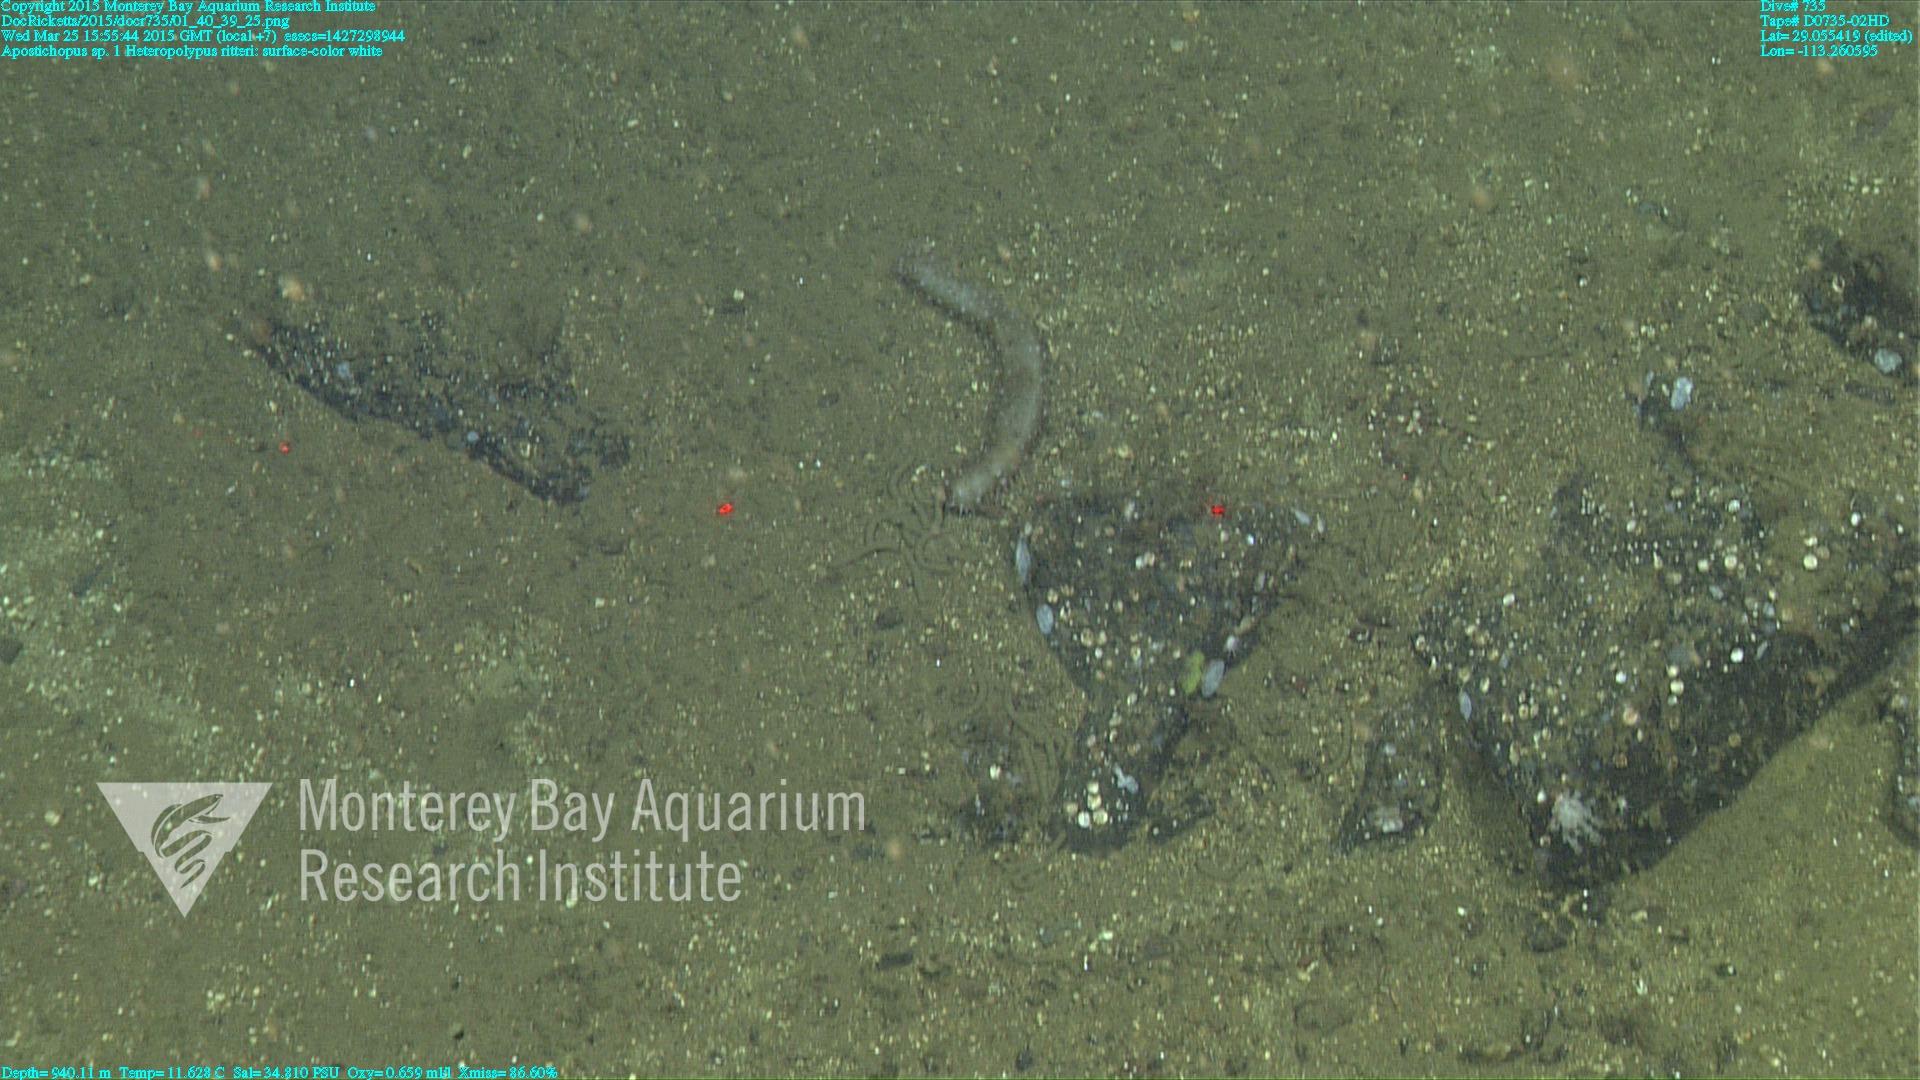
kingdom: Animalia
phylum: Cnidaria
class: Anthozoa
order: Scleralcyonacea
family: Coralliidae
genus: Heteropolypus
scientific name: Heteropolypus ritteri
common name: Ritter's soft coral
